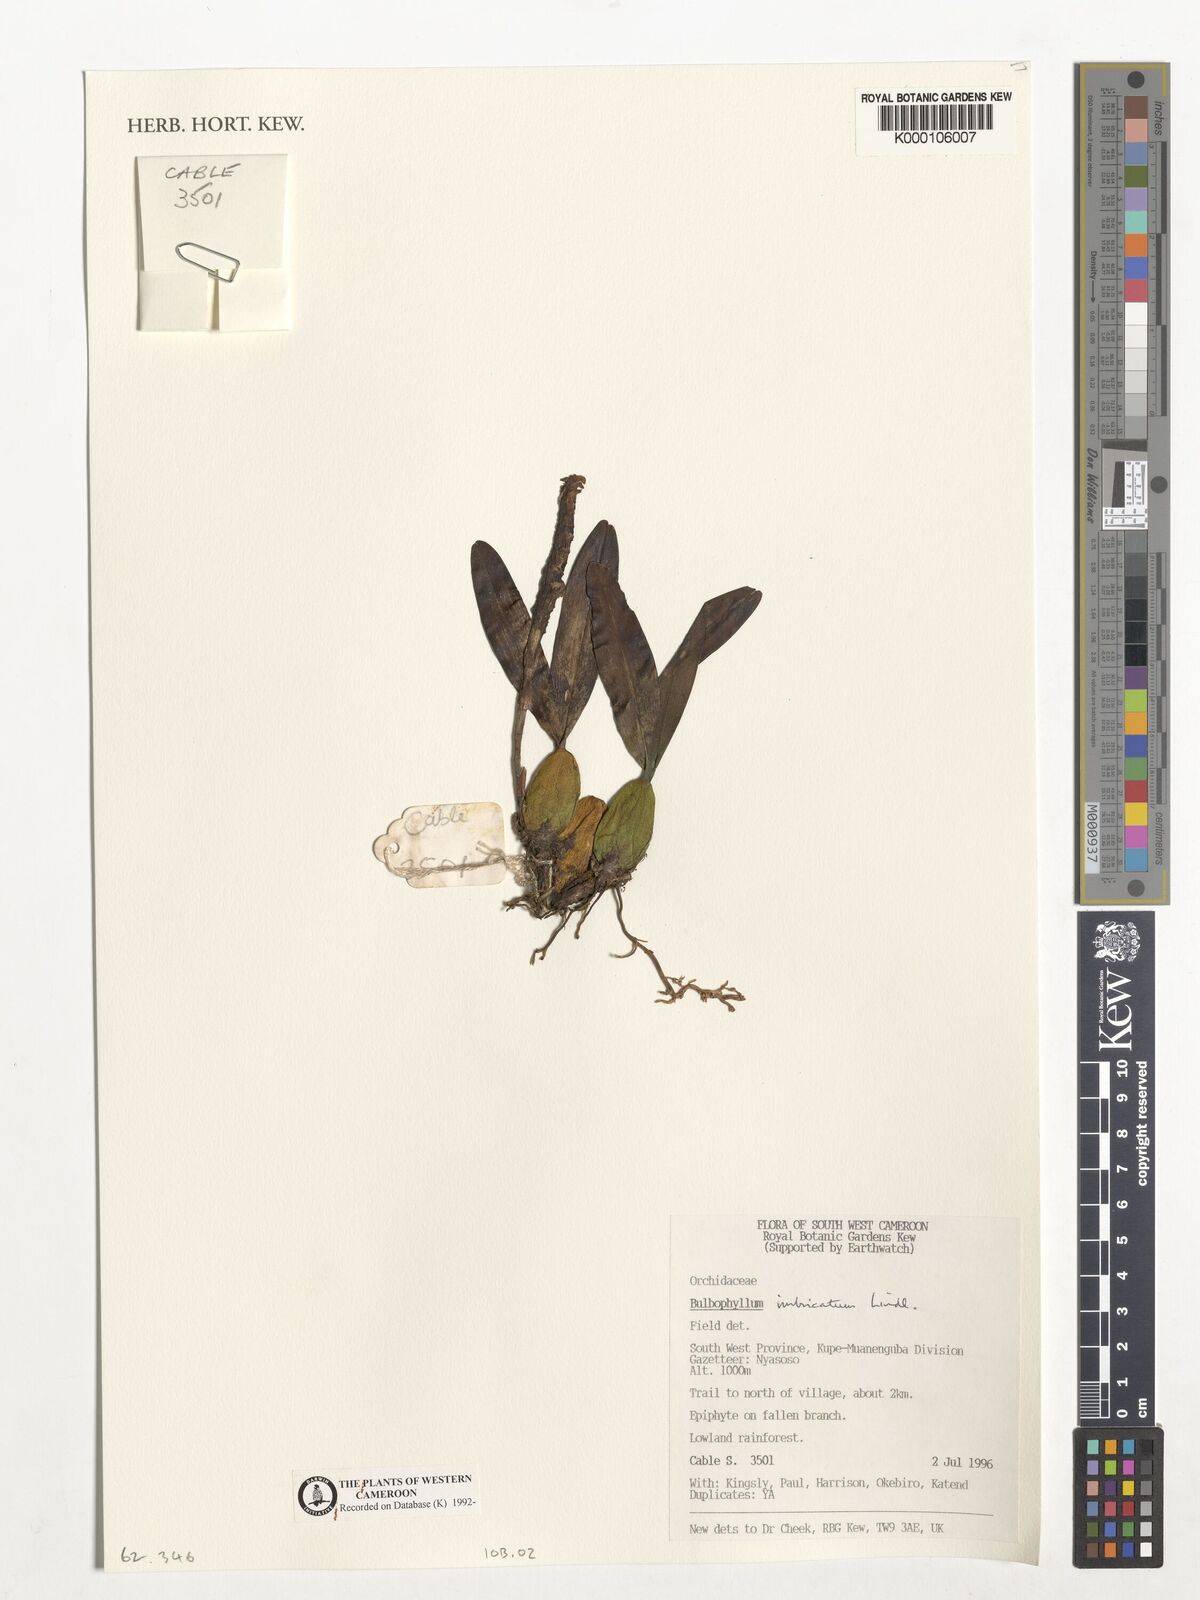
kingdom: Plantae
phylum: Tracheophyta
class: Liliopsida
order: Asparagales
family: Orchidaceae
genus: Bulbophyllum
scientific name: Bulbophyllum imbricatum
